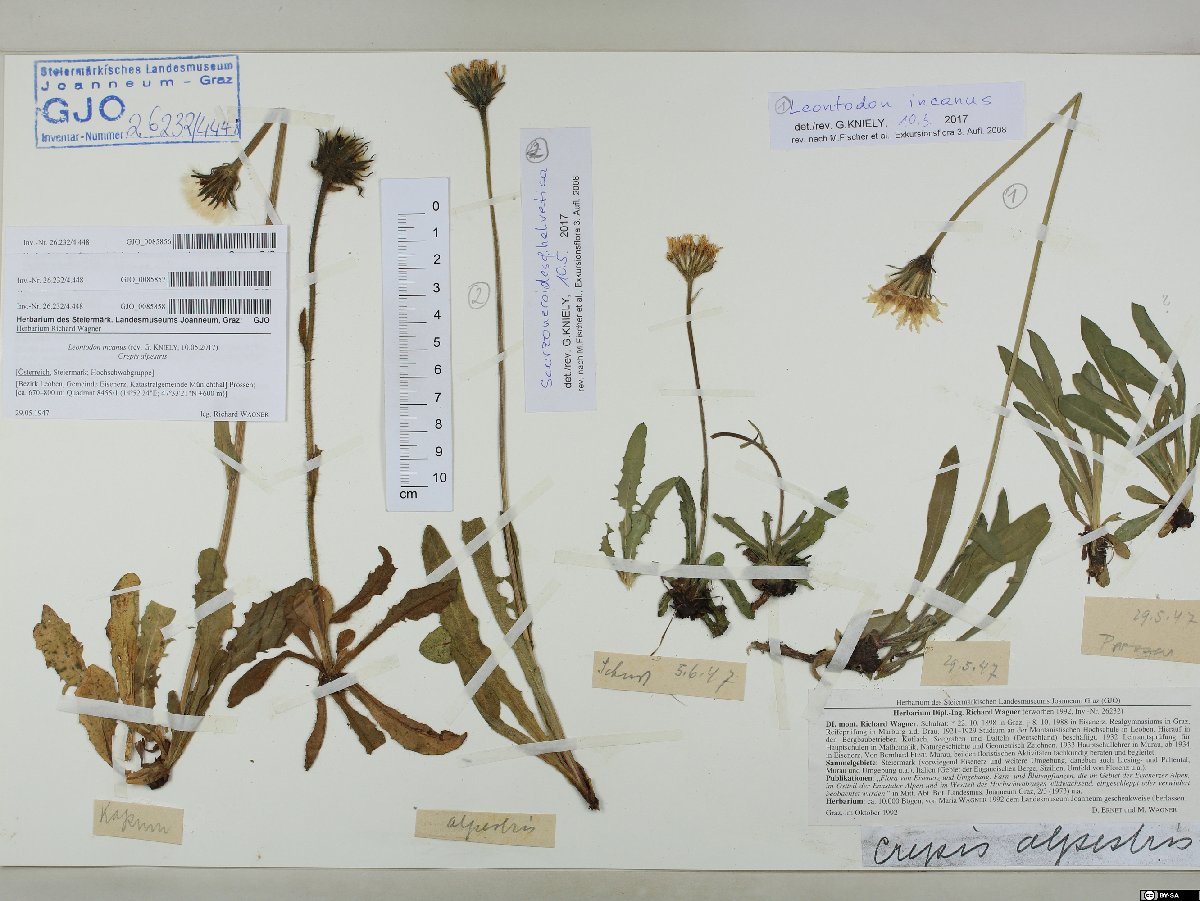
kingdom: Plantae
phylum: Tracheophyta
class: Magnoliopsida
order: Asterales
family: Asteraceae
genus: Crepis
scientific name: Crepis alpestris
